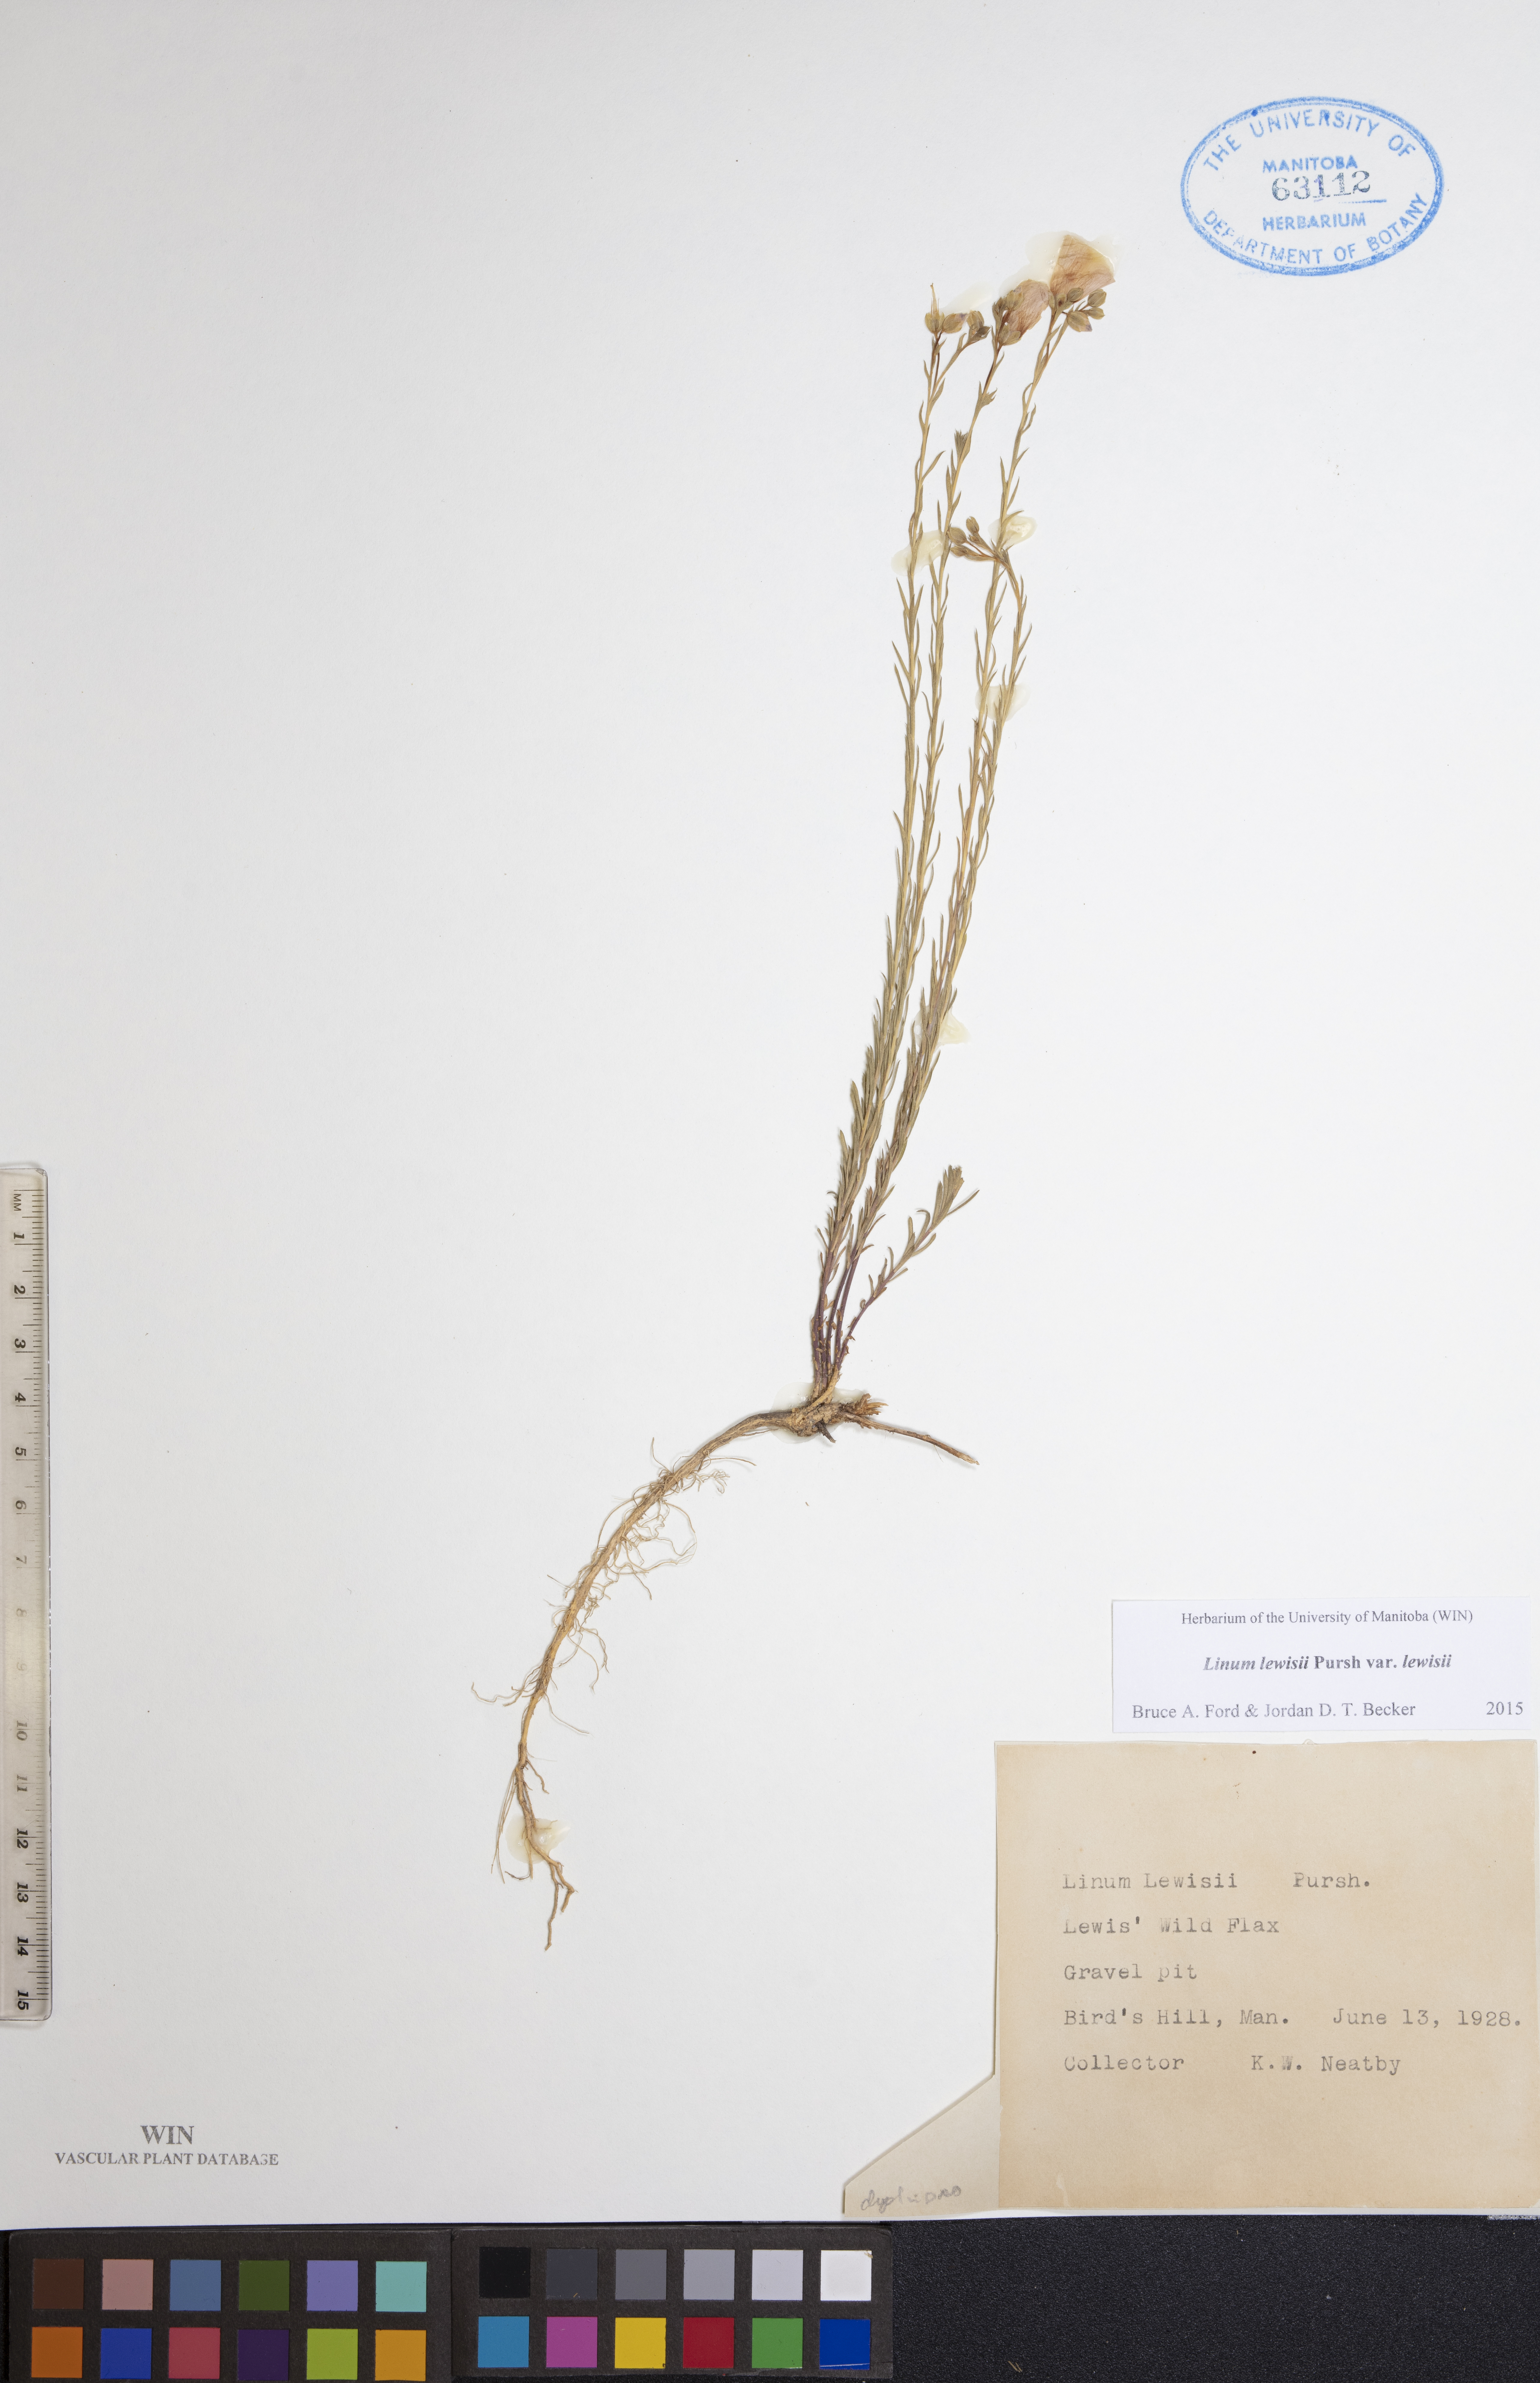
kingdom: Plantae
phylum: Tracheophyta
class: Magnoliopsida
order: Malpighiales
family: Linaceae
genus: Linum
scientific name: Linum lewisii
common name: Prairie flax
